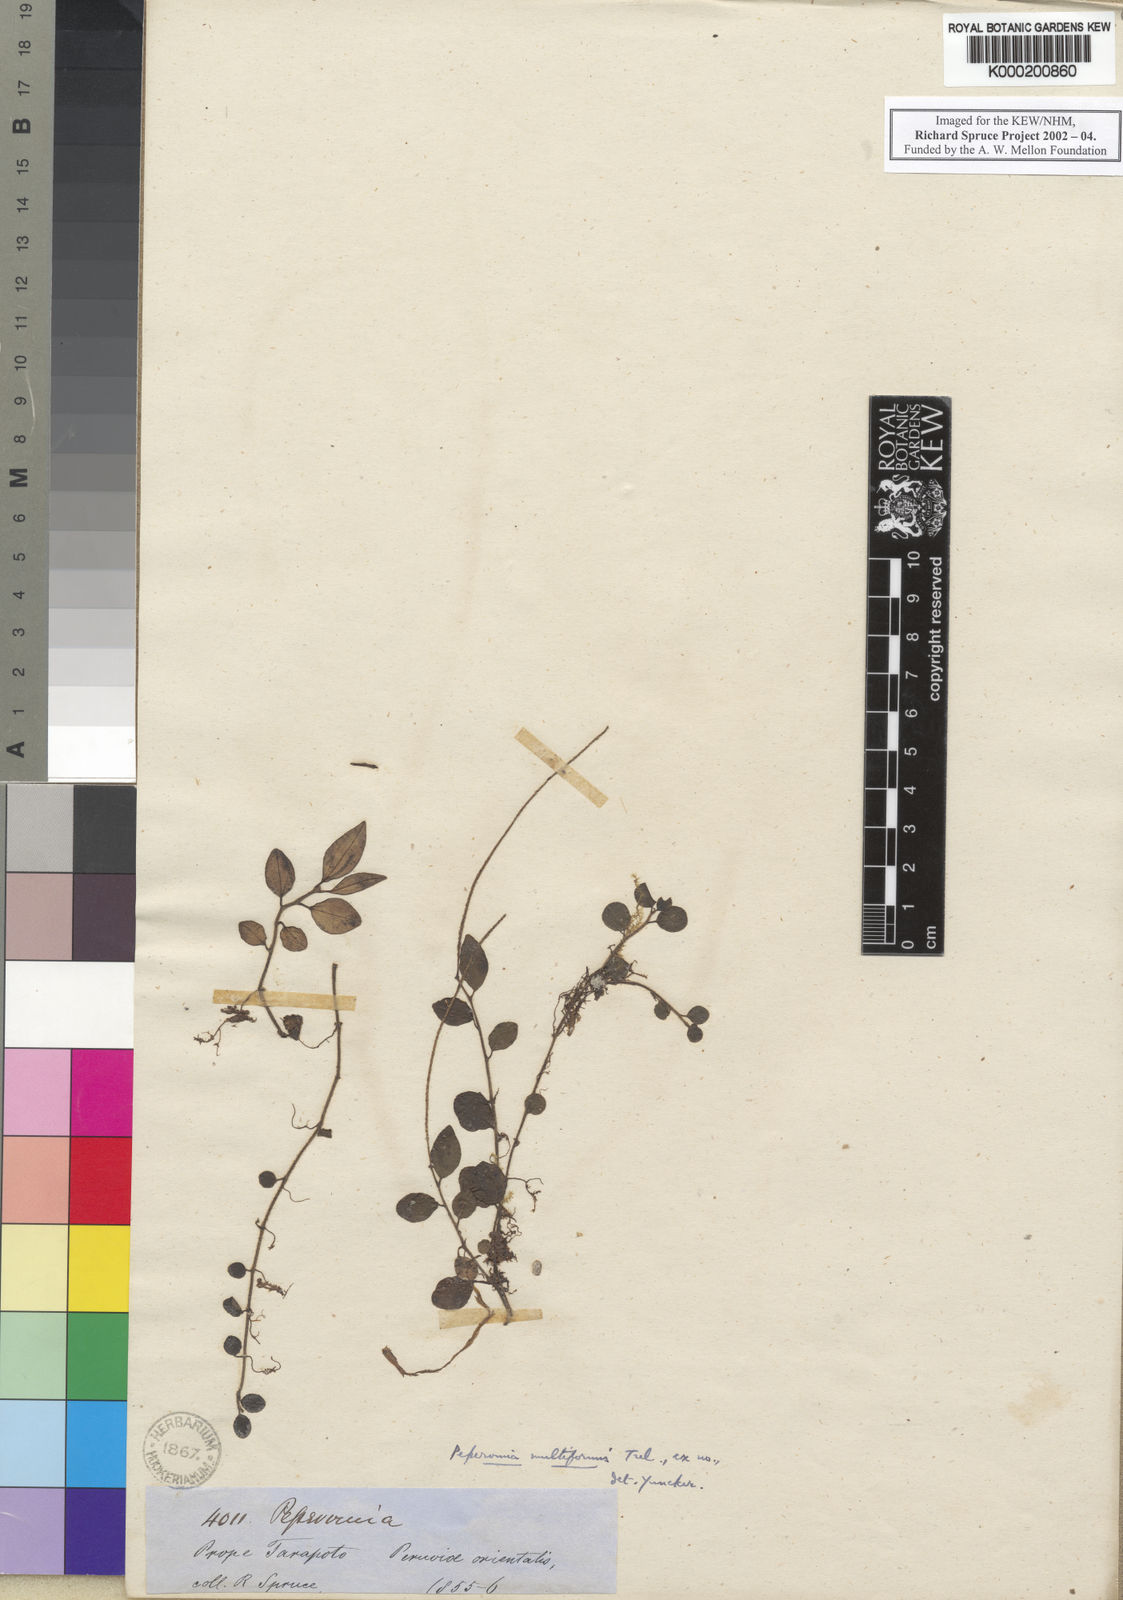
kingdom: Plantae
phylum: Tracheophyta
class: Magnoliopsida
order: Piperales
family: Piperaceae
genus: Peperomia
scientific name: Peperomia multiformis
